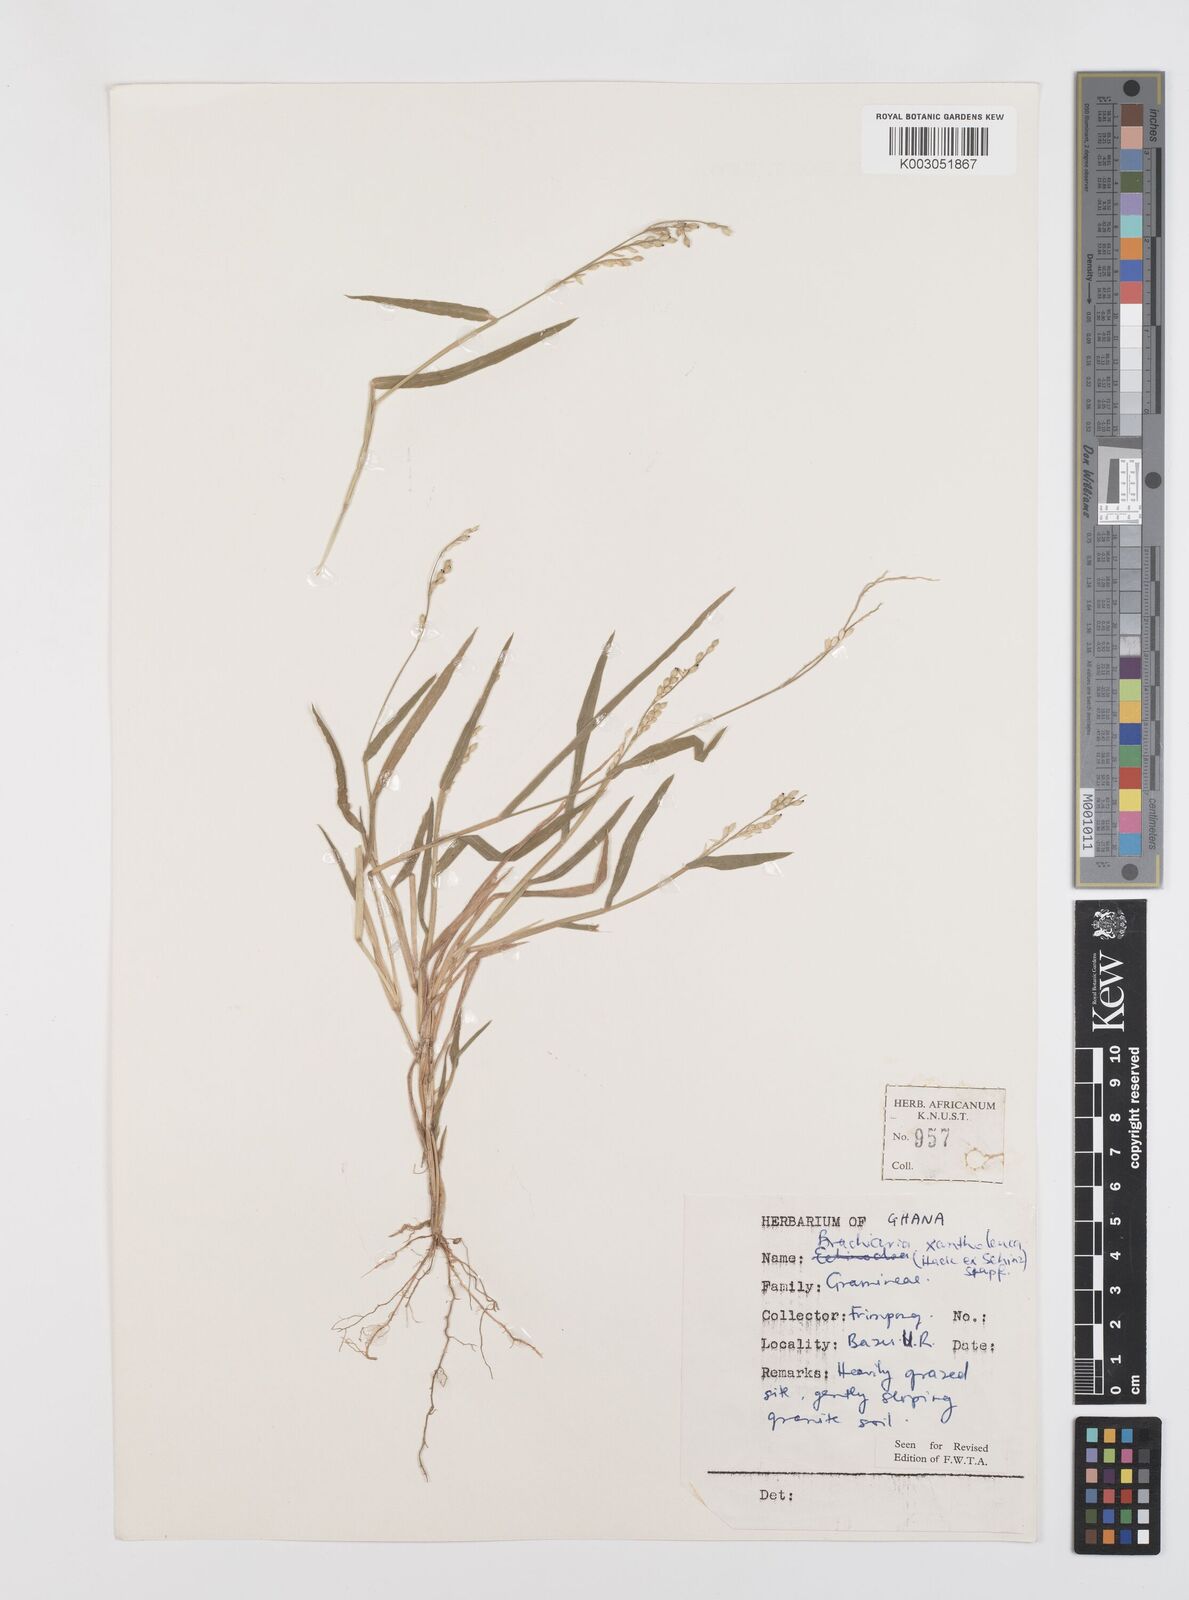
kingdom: Plantae
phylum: Tracheophyta
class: Liliopsida
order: Poales
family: Poaceae
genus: Urochloa
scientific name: Urochloa xantholeuca
